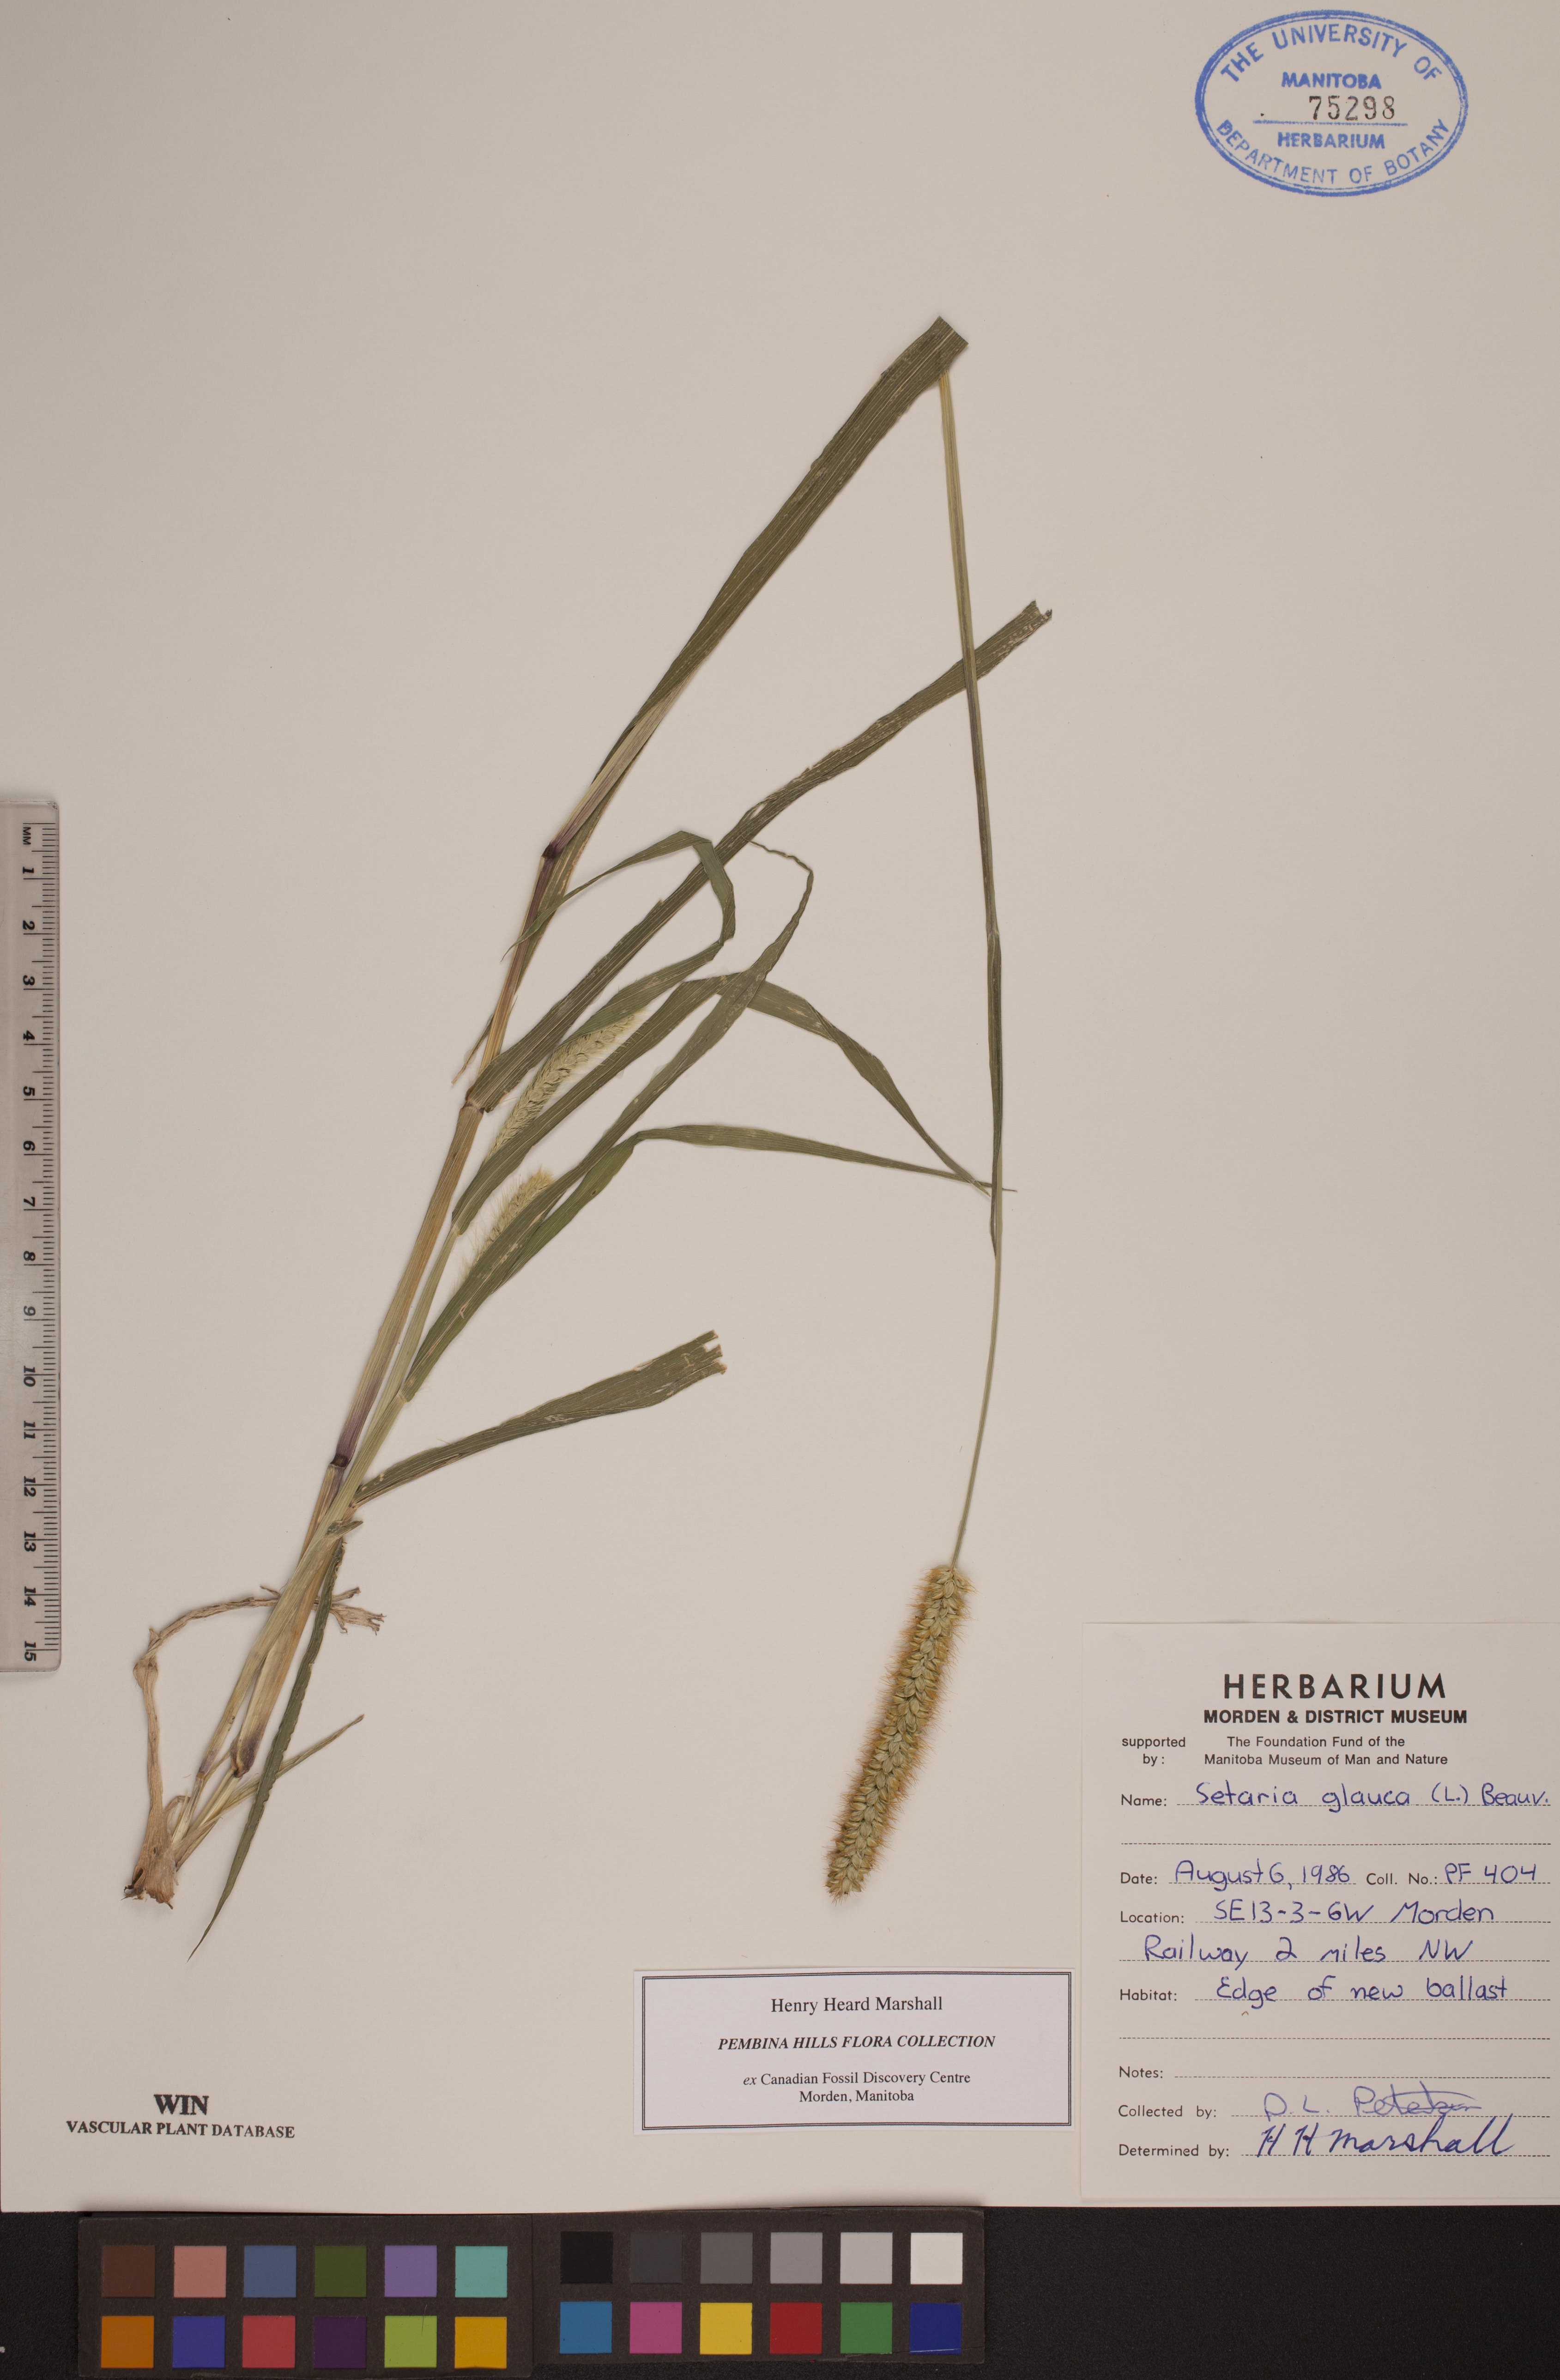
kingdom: Plantae
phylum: Tracheophyta
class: Liliopsida
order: Poales
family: Poaceae
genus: Cenchrus
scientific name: Cenchrus americanus
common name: Pearl millet
